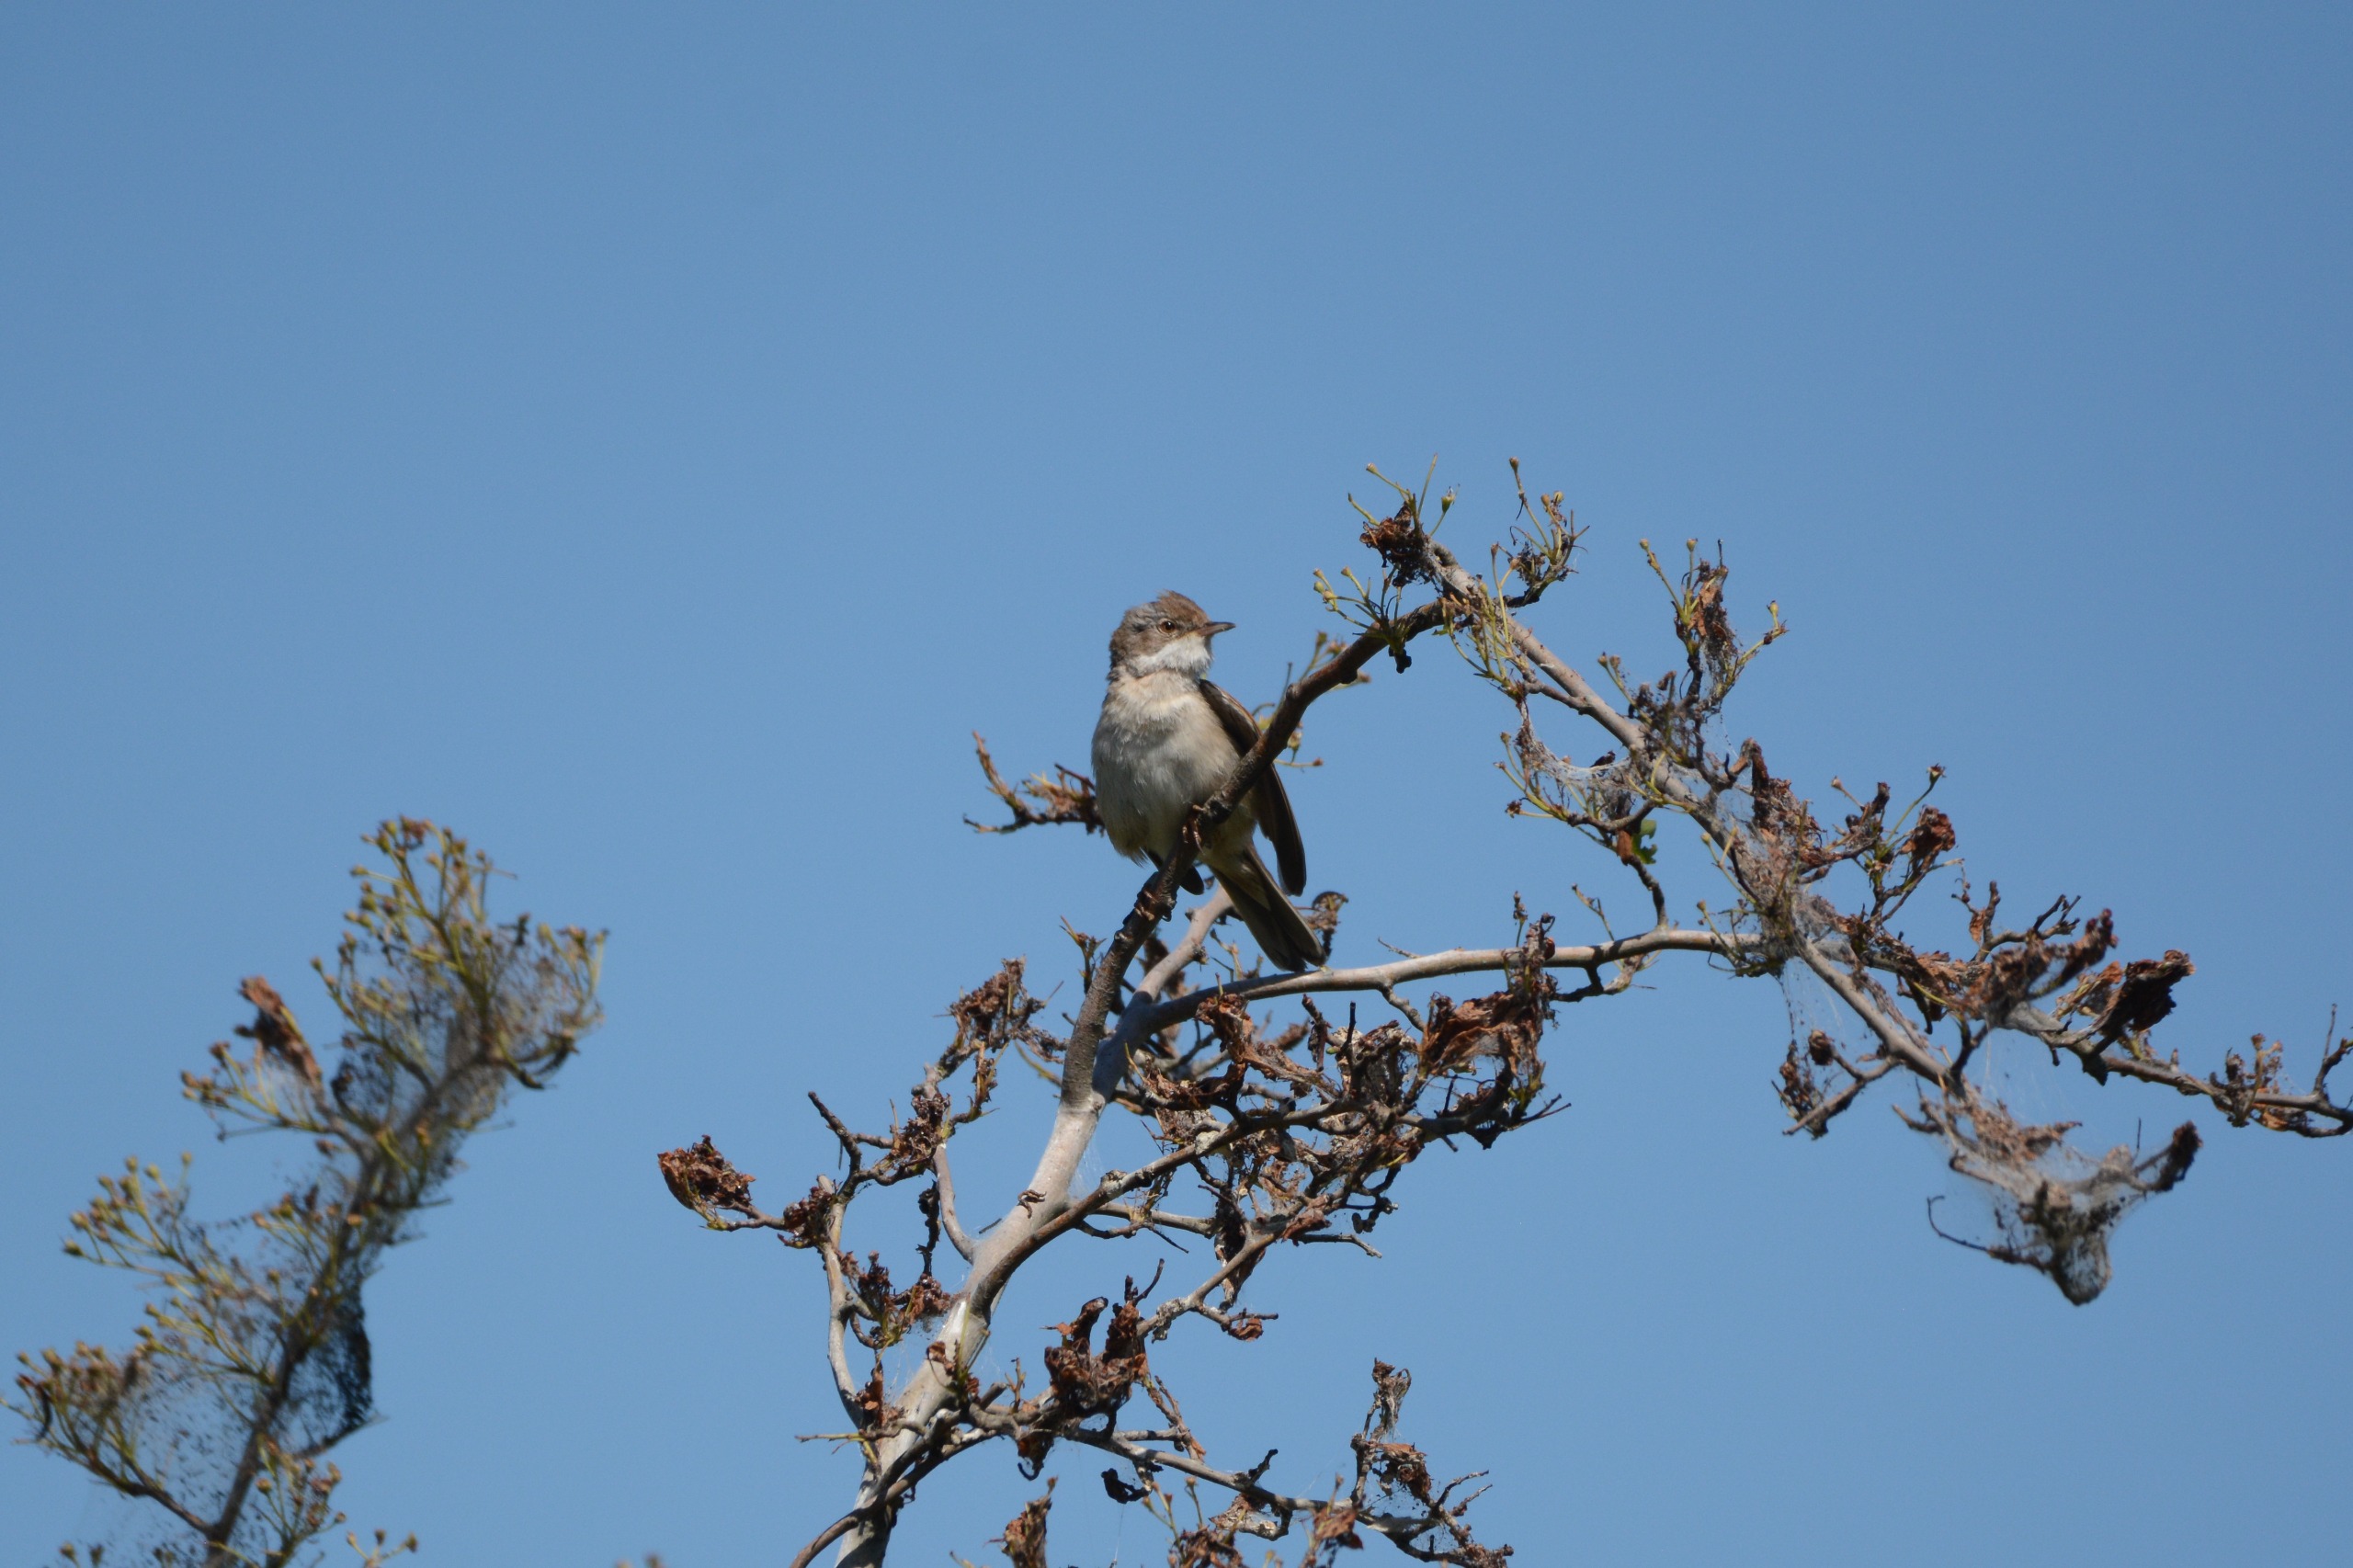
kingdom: Animalia
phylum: Chordata
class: Aves
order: Passeriformes
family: Sylviidae
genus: Sylvia
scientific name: Sylvia communis
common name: Tornsanger
